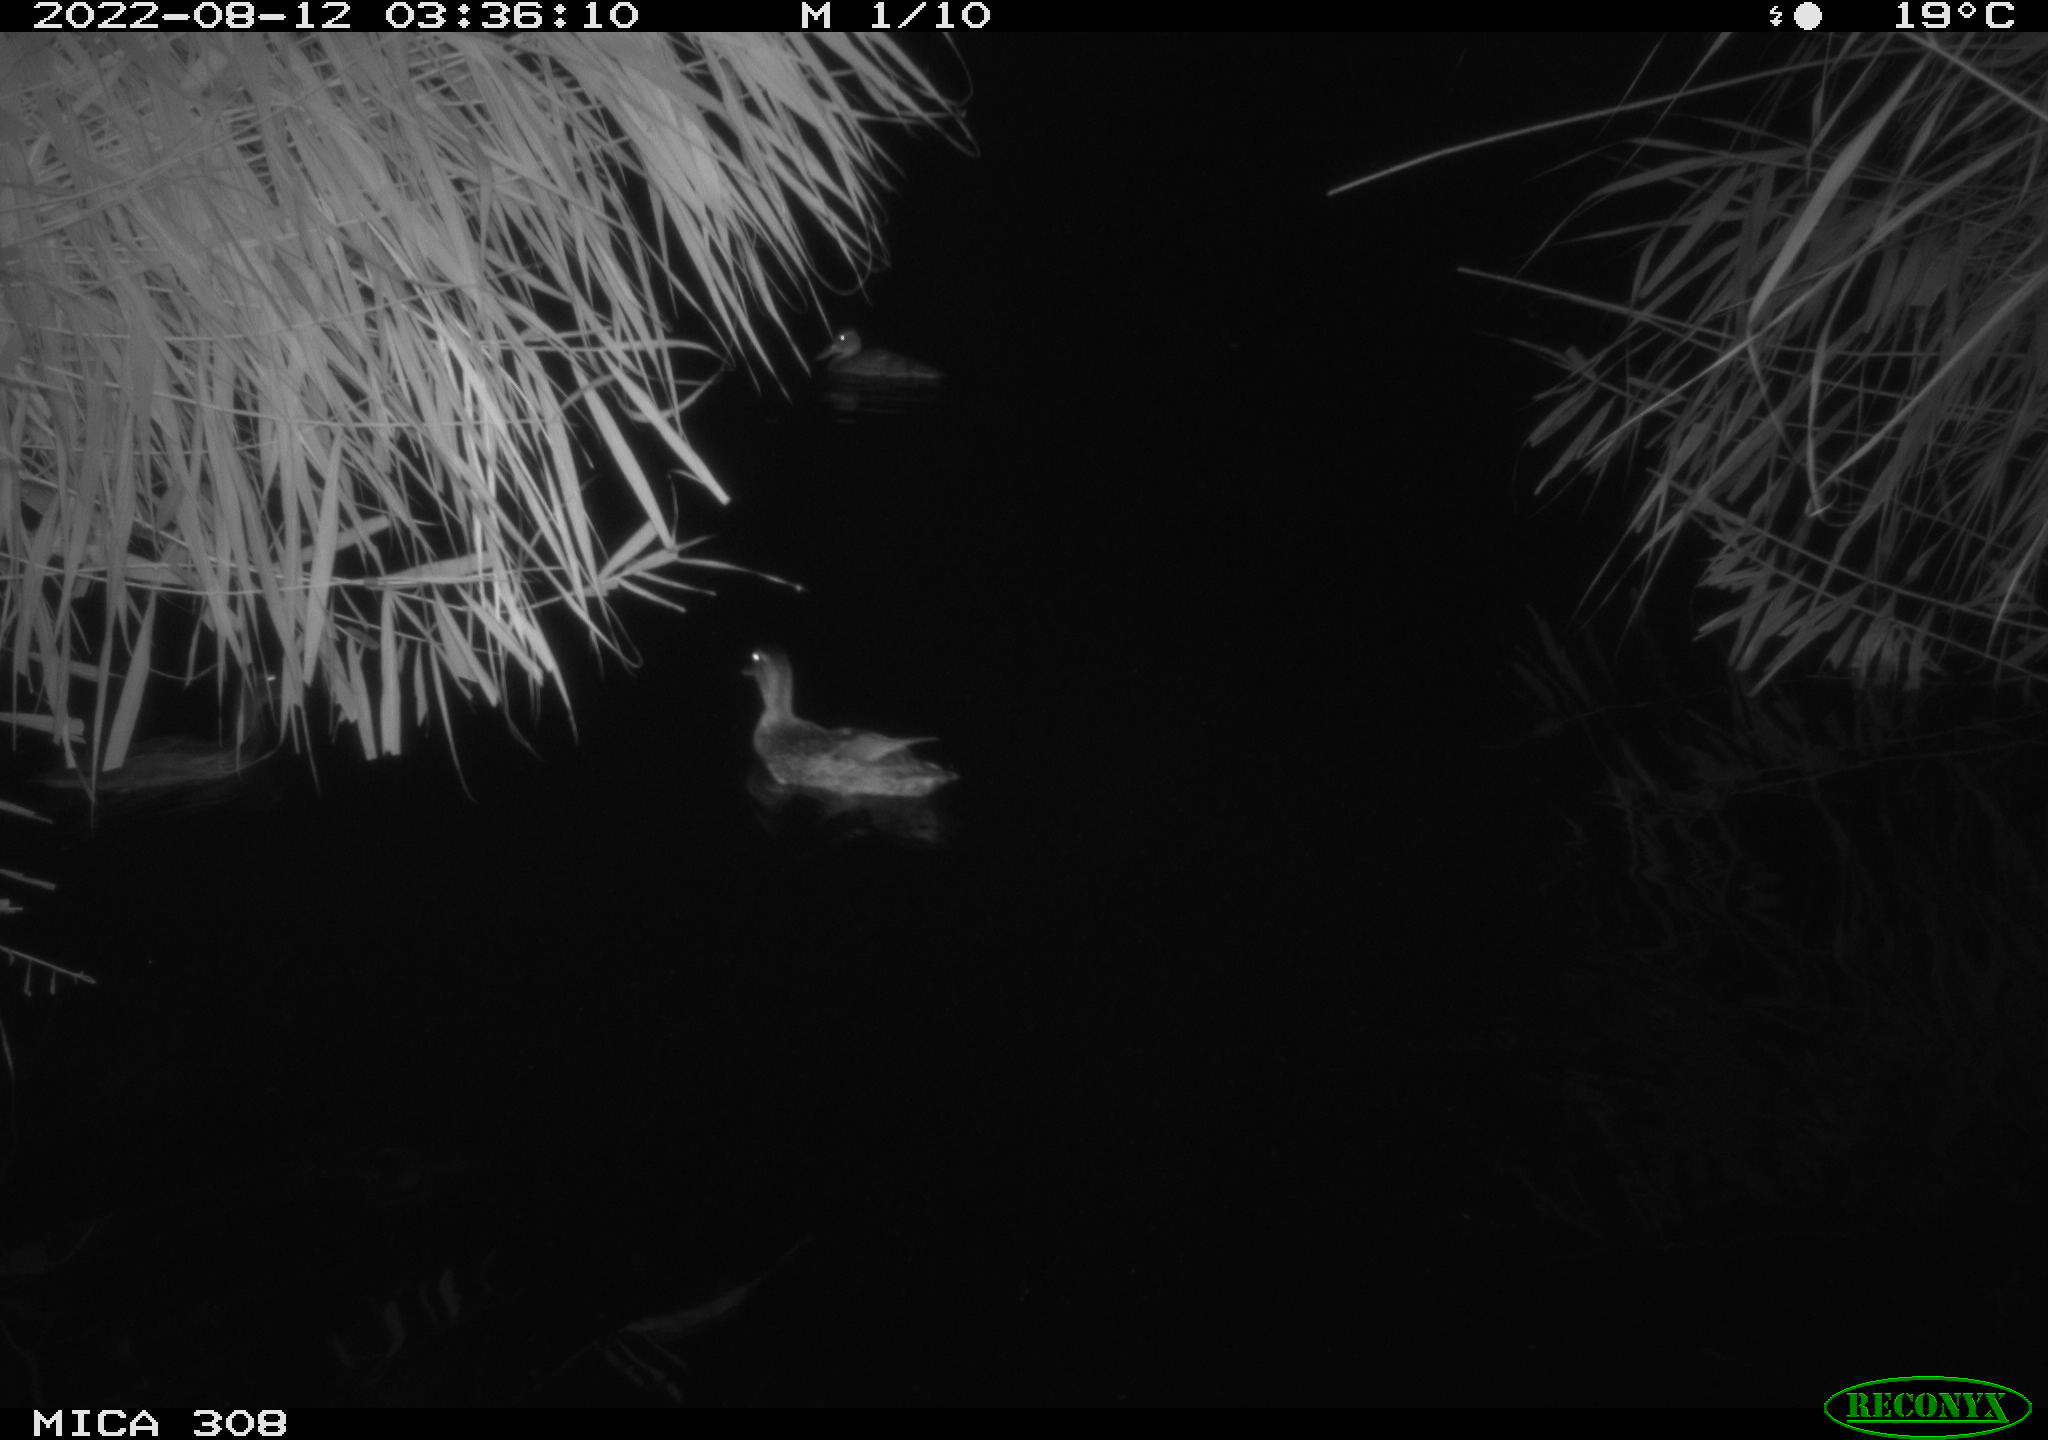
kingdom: Animalia
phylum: Chordata
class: Aves
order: Anseriformes
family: Anatidae
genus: Anas
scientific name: Anas platyrhynchos
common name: Mallard
